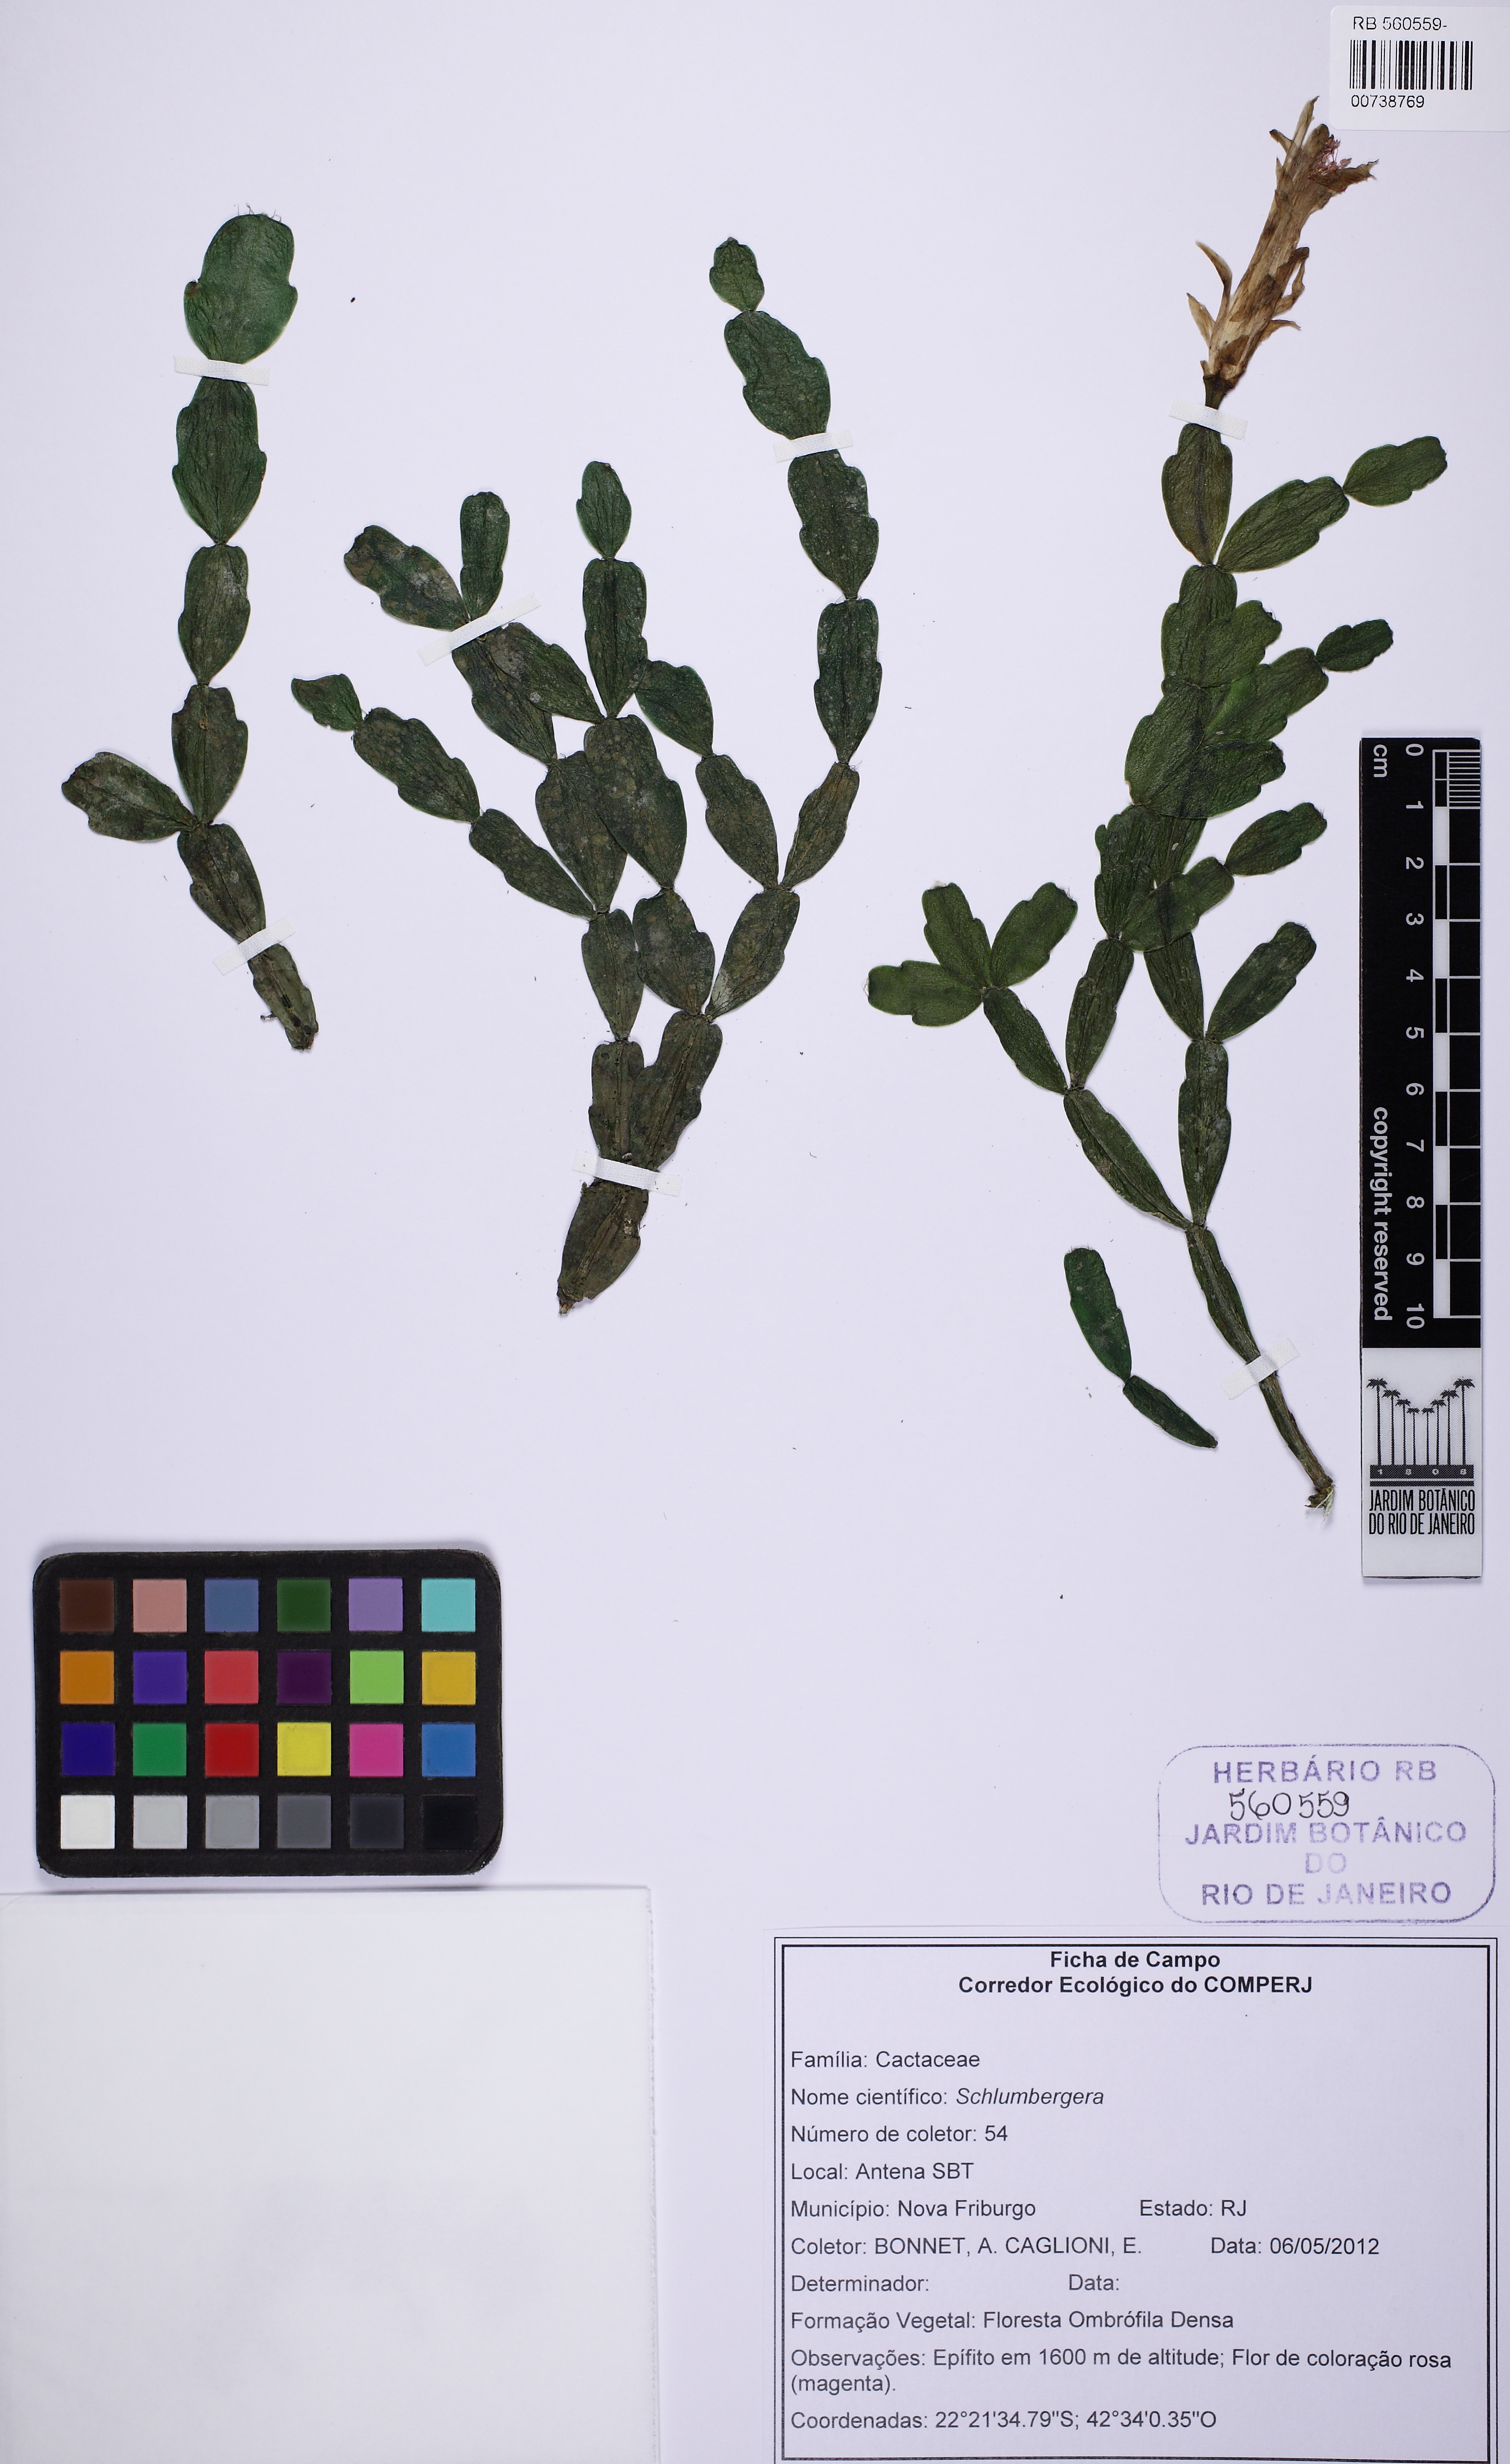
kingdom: Plantae
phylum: Tracheophyta
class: Magnoliopsida
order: Caryophyllales
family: Cactaceae
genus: Schlumbergera
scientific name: Schlumbergera russeliana
